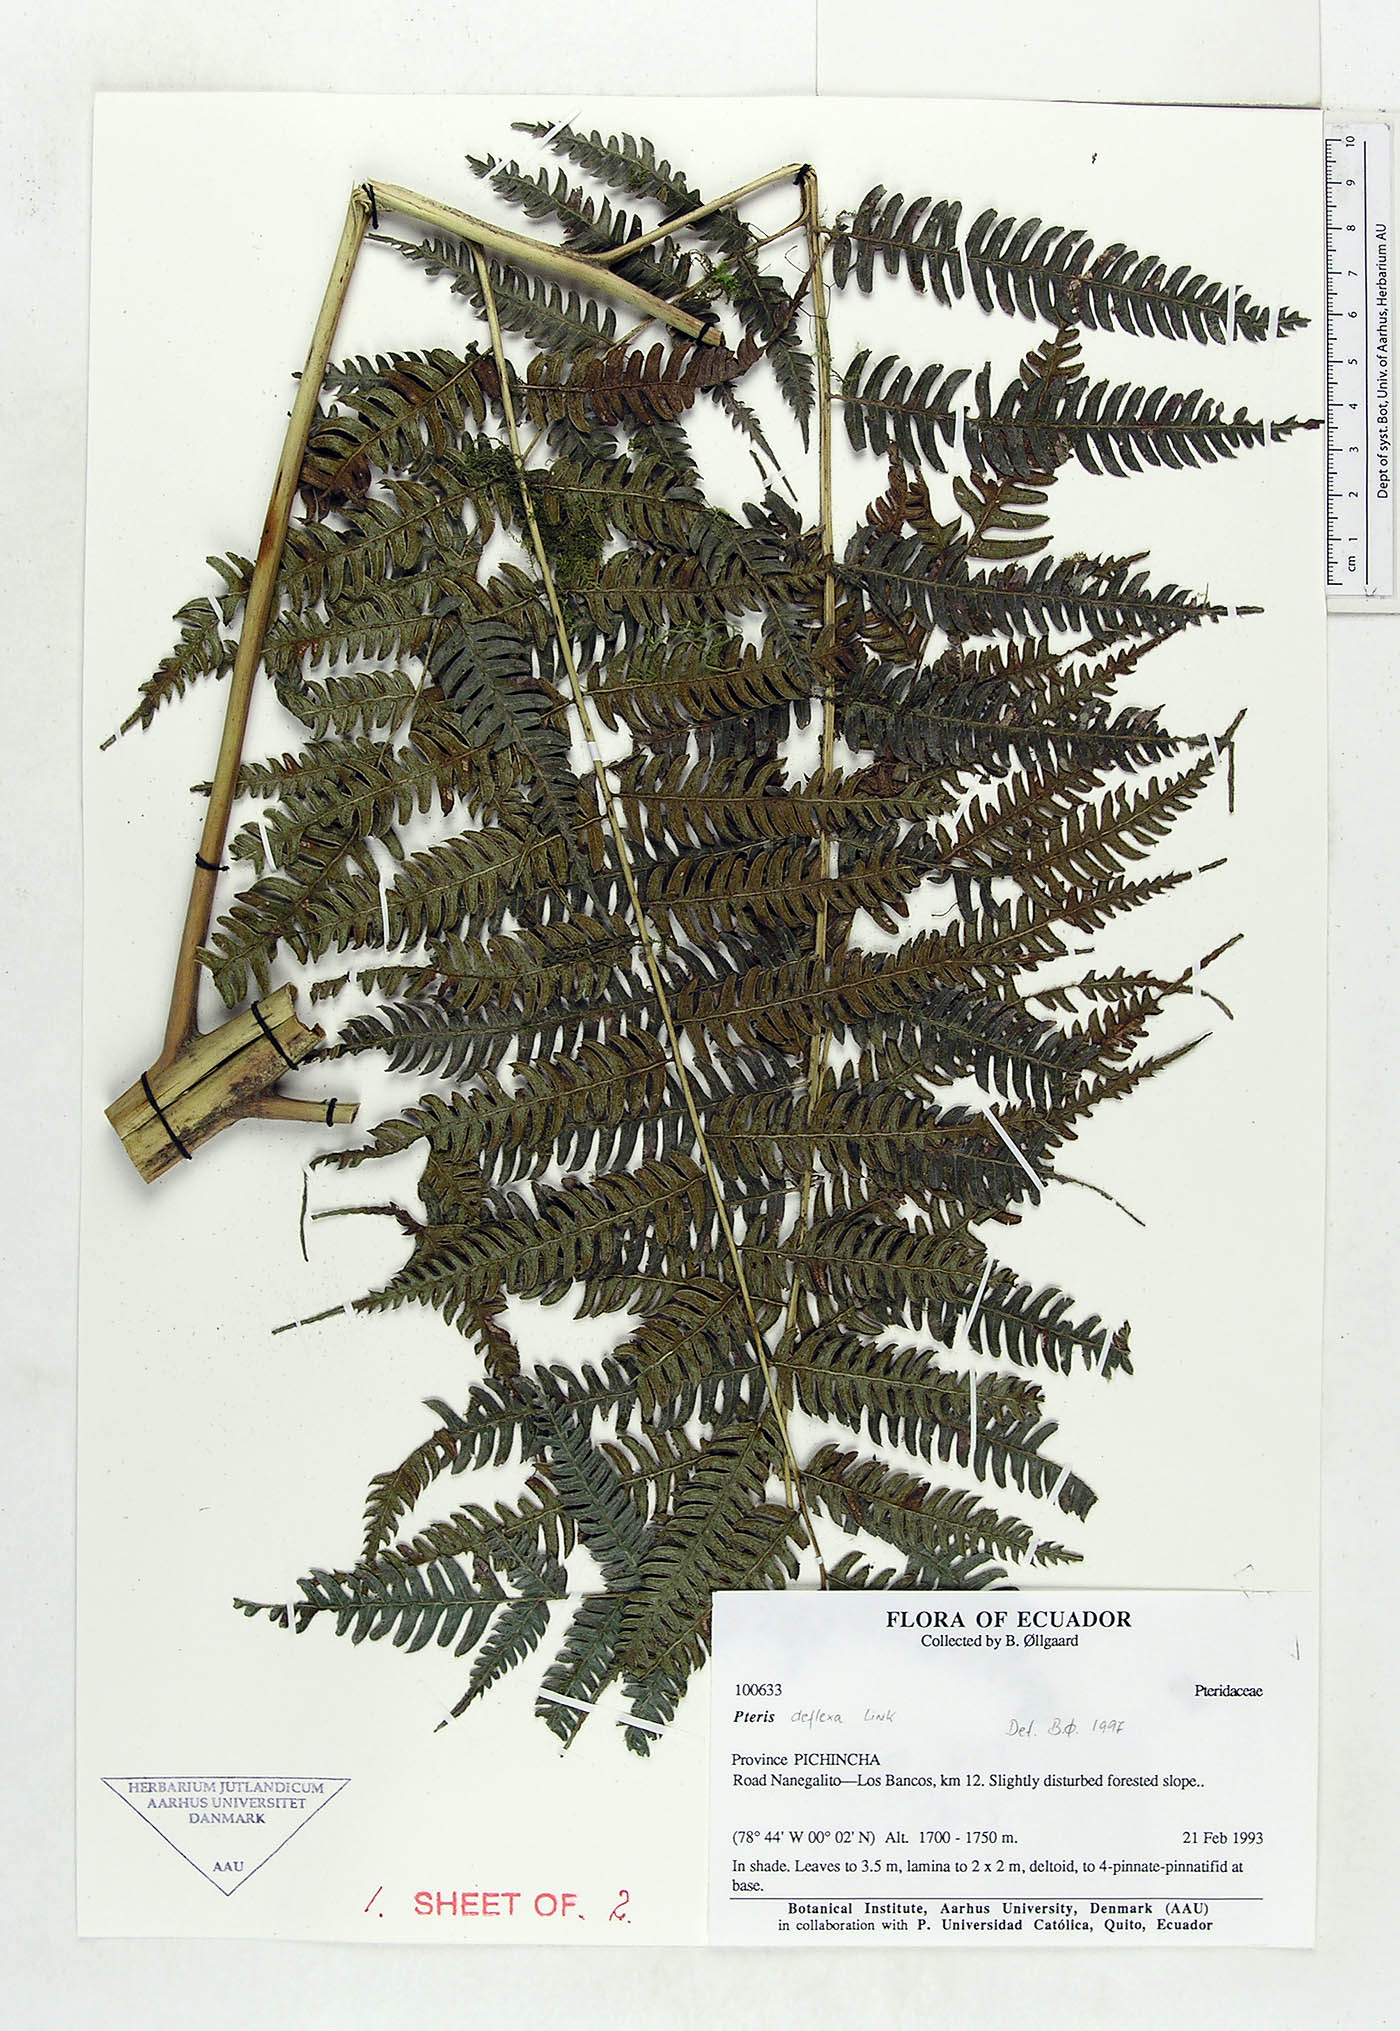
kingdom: Plantae
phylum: Tracheophyta
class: Polypodiopsida
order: Polypodiales
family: Pteridaceae
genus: Pteris
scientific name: Pteris deflexa
